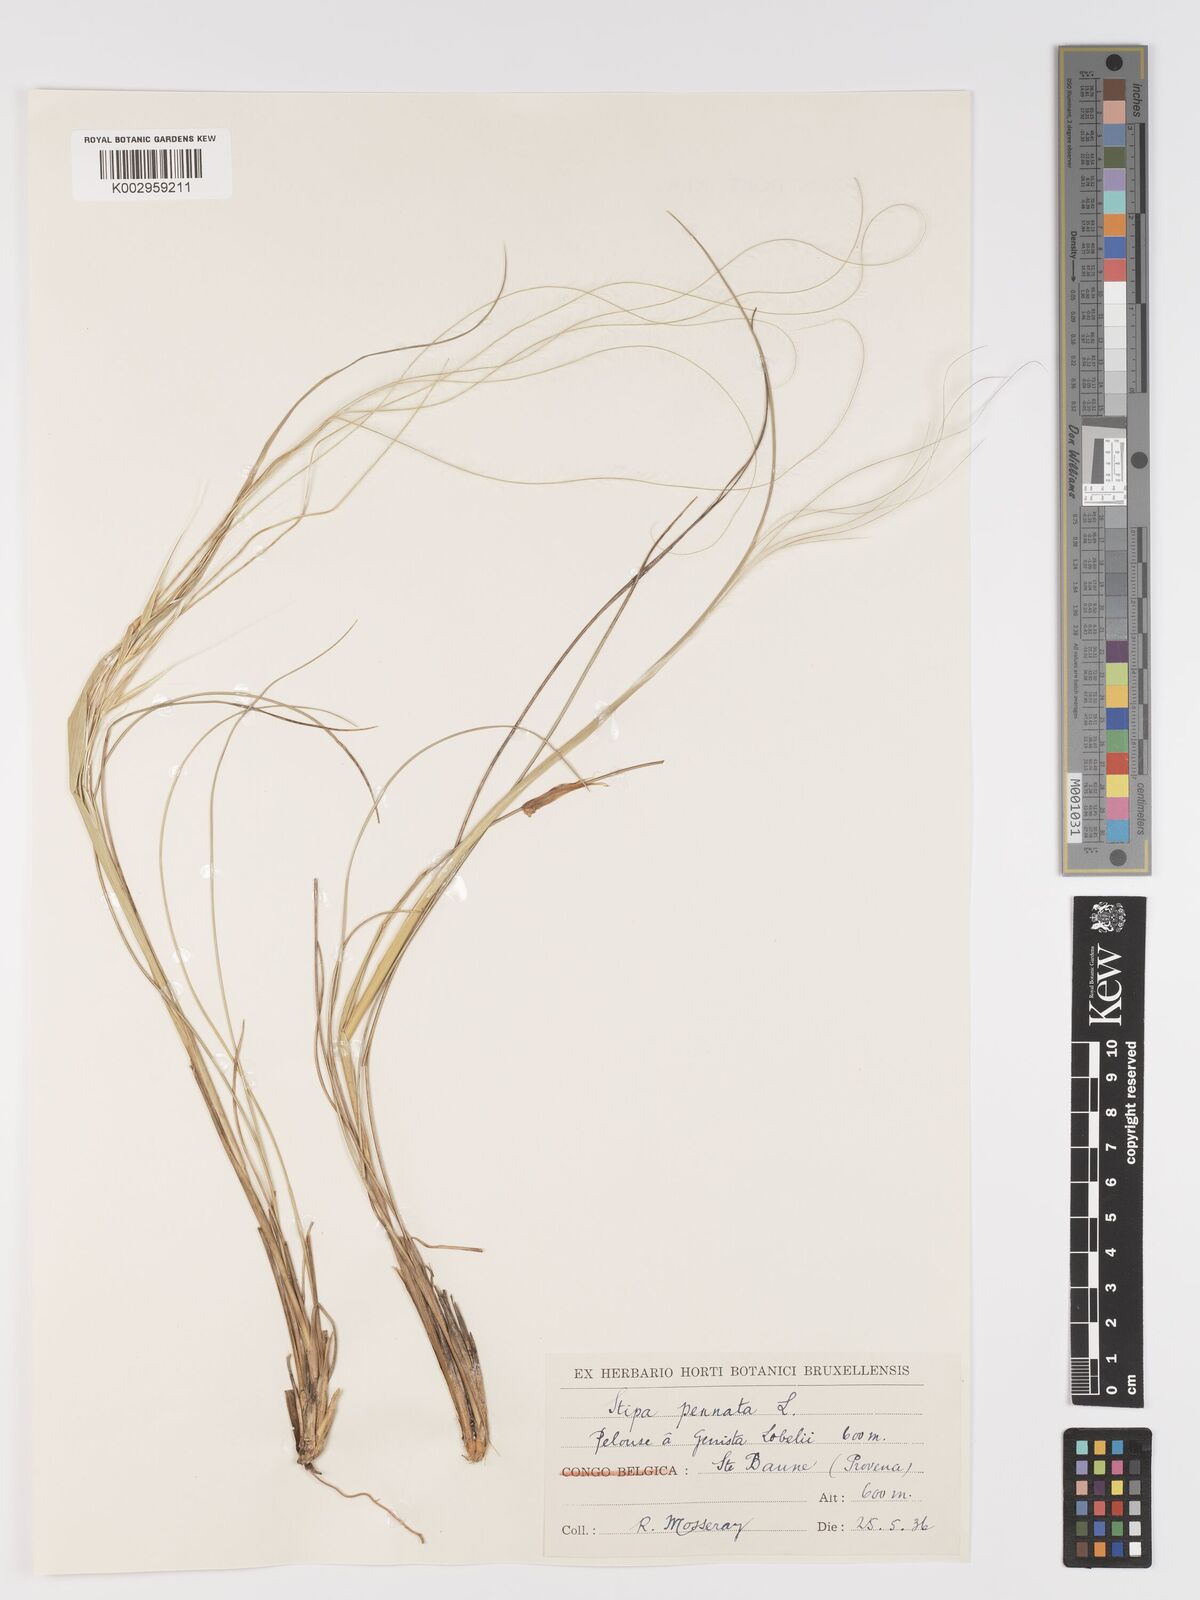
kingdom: Plantae
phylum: Tracheophyta
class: Liliopsida
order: Poales
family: Poaceae
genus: Stipa
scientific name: Stipa pennata
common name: European feather grass
